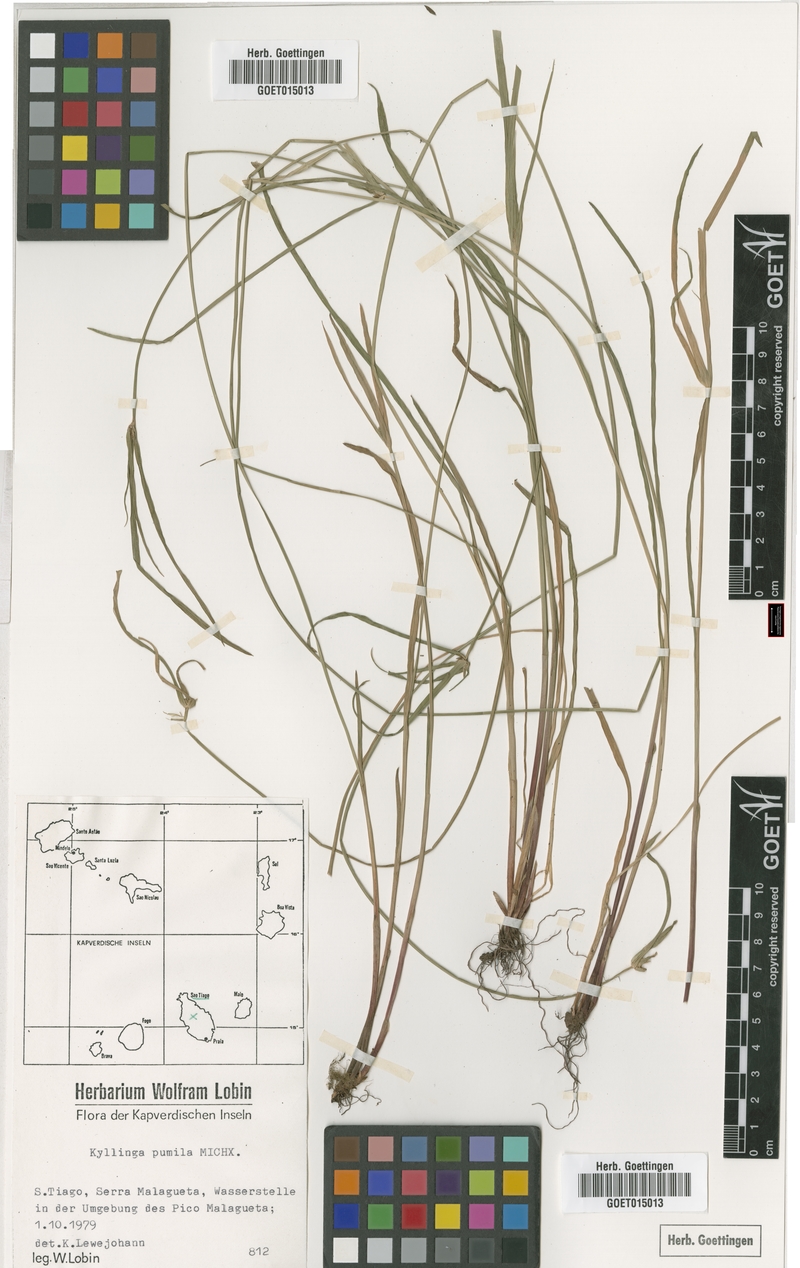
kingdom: Plantae
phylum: Tracheophyta
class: Liliopsida
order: Poales
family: Cyperaceae
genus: Cyperus
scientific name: Cyperus hortensis
